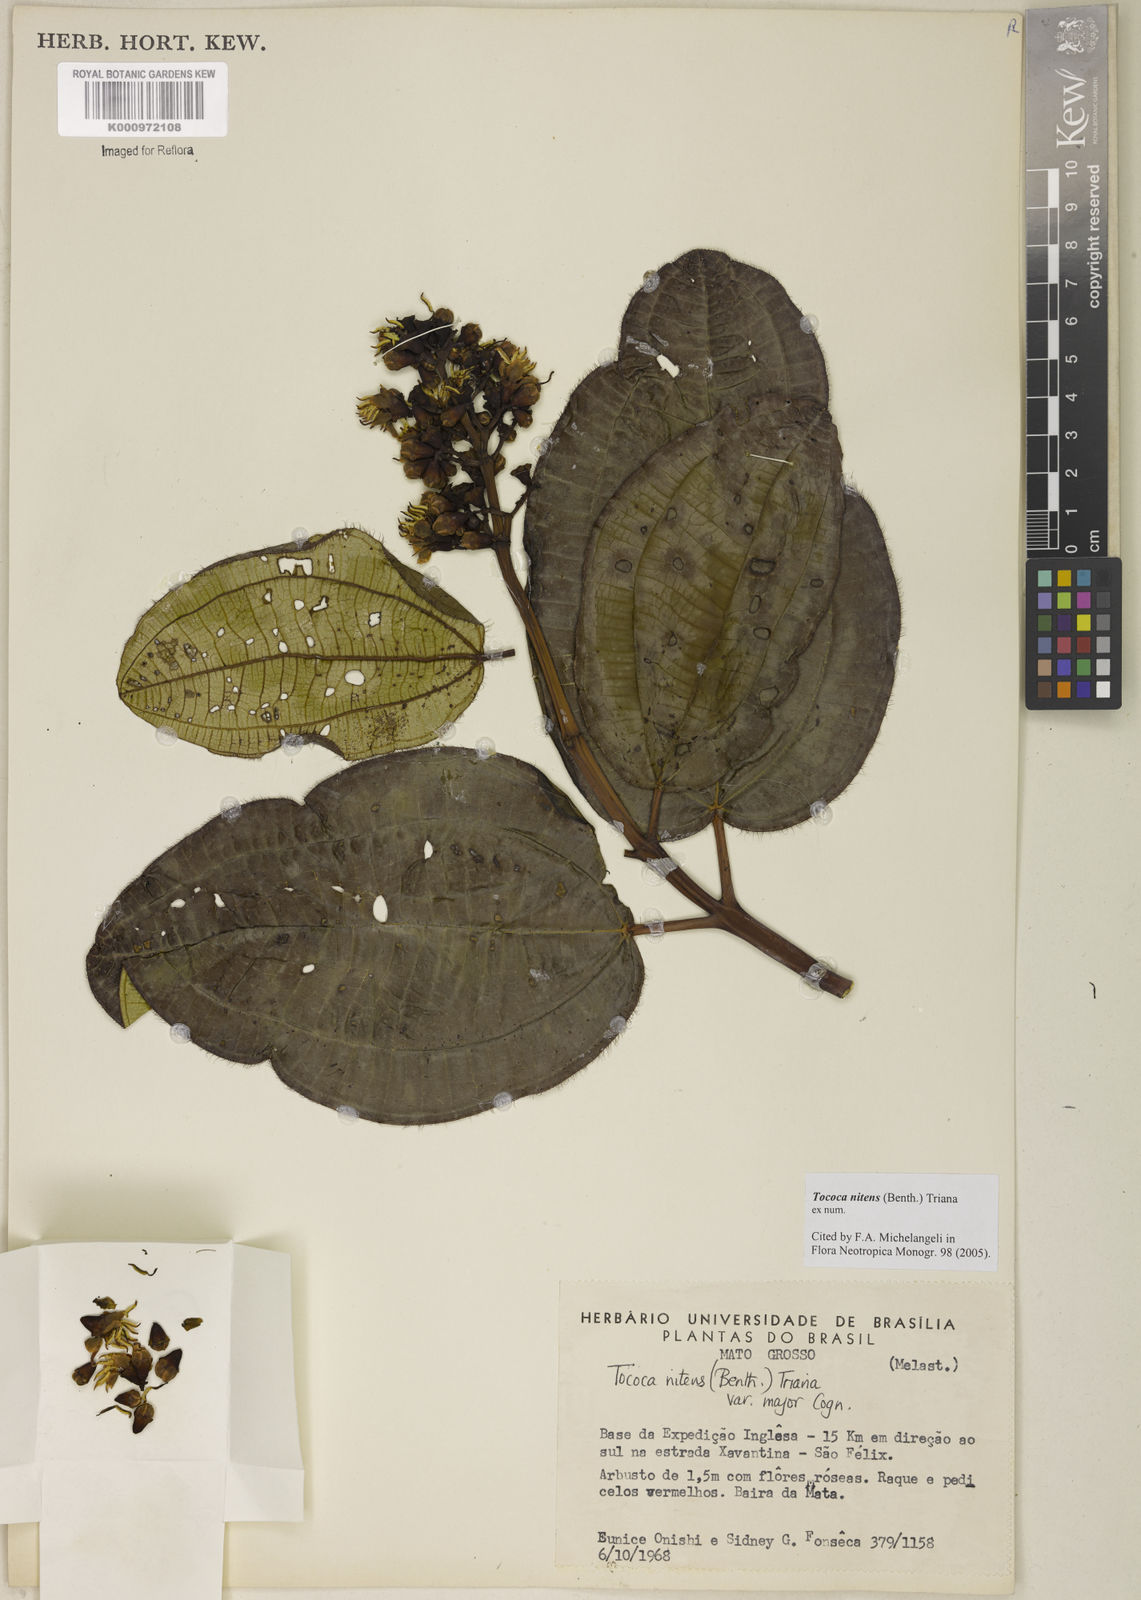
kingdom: Plantae
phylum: Tracheophyta
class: Magnoliopsida
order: Myrtales
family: Melastomataceae
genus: Miconia
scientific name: Miconia nitens
